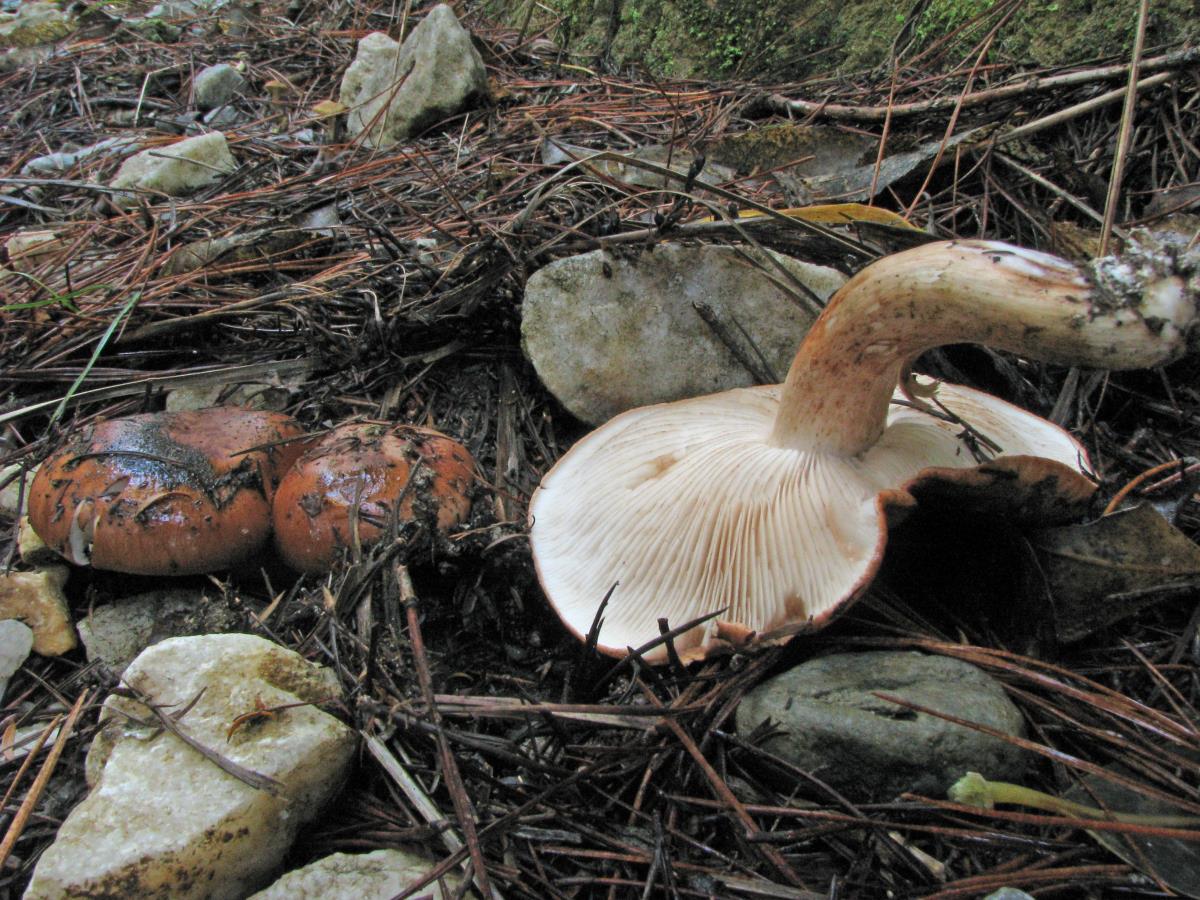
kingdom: Fungi
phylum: Basidiomycota
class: Agaricomycetes
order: Agaricales
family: Tricholomataceae
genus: Tricholoma
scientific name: Tricholoma albobrunneum
